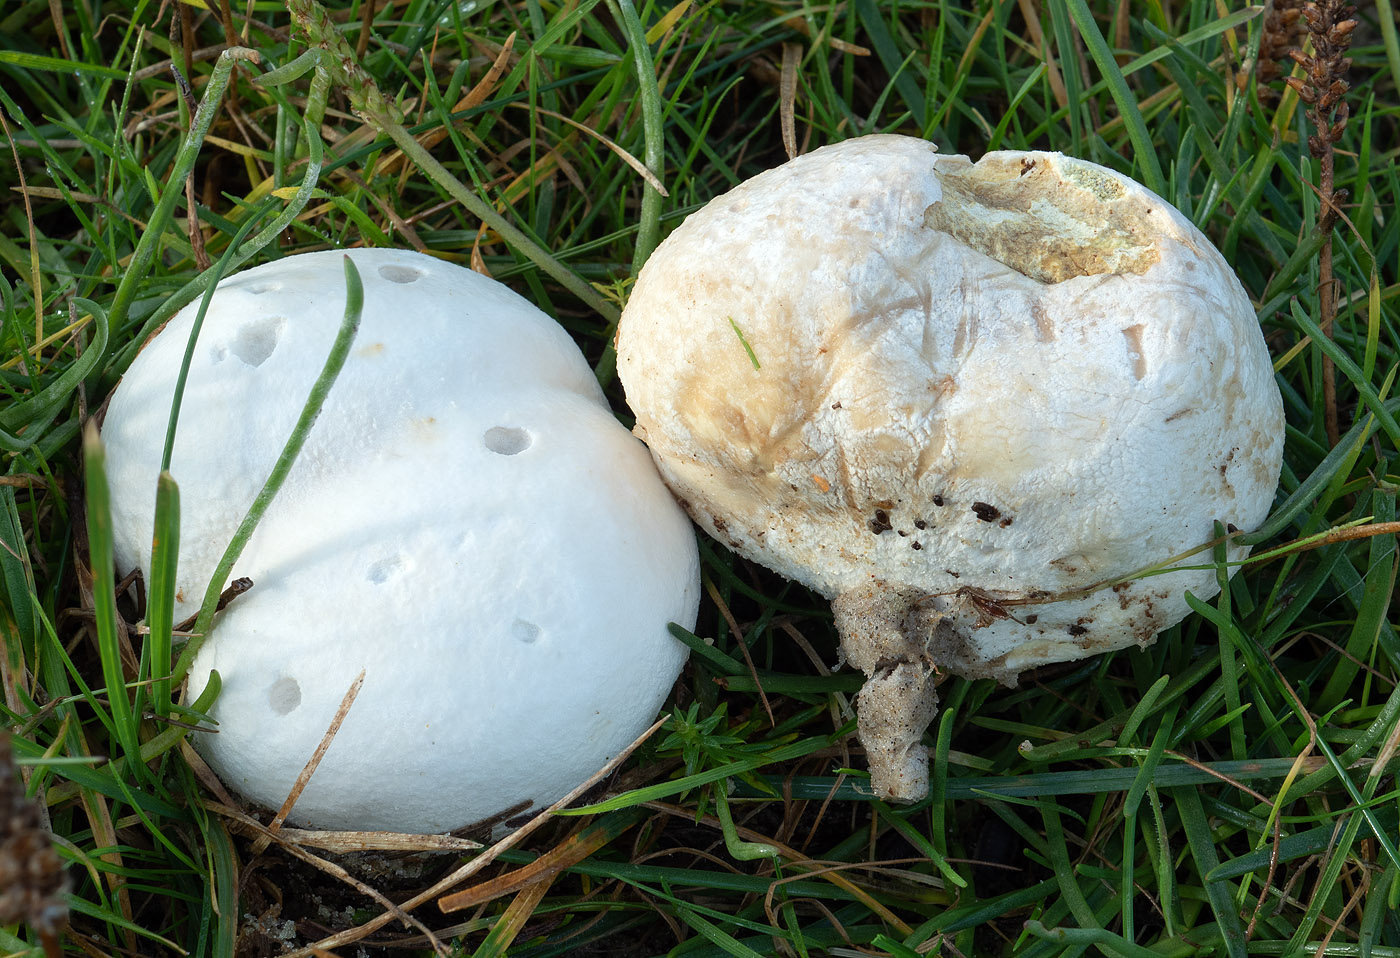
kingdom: Fungi
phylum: Basidiomycota
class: Agaricomycetes
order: Agaricales
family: Lycoperdaceae
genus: Bovista
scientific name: Bovista nigrescens
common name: sortagtig bovist
